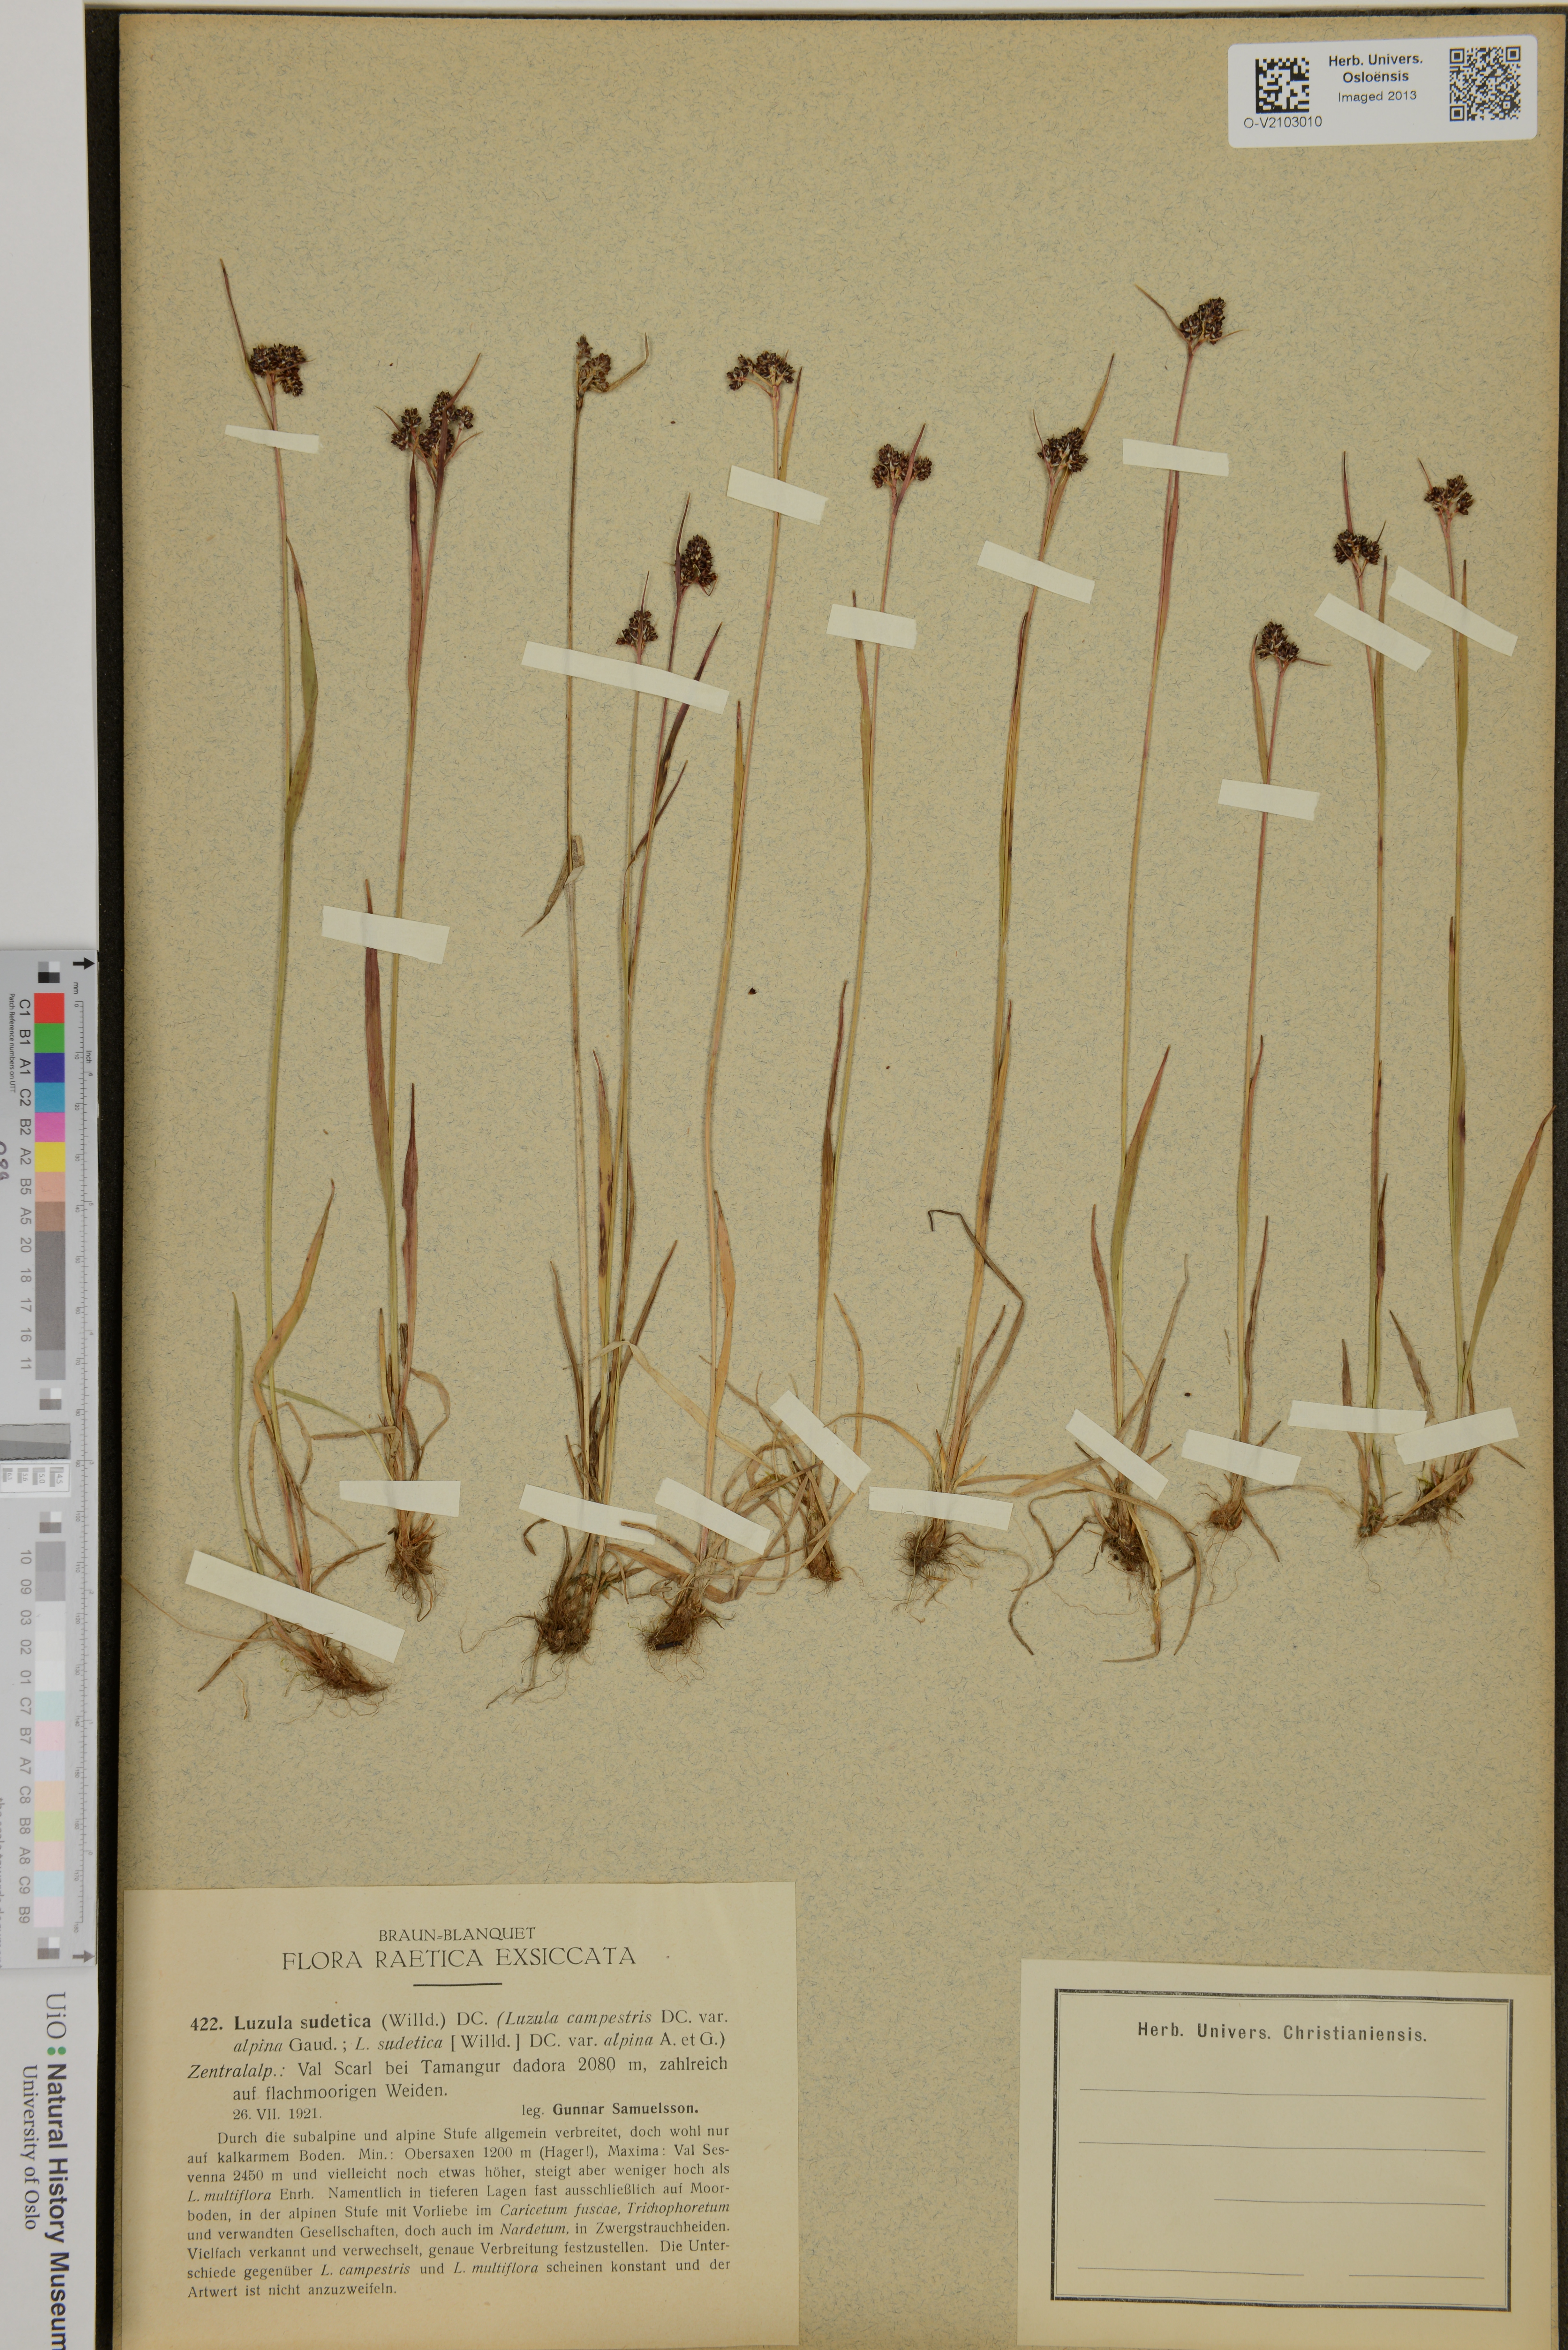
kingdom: Plantae
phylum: Tracheophyta
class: Liliopsida
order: Poales
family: Juncaceae
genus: Luzula
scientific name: Luzula sudetica
